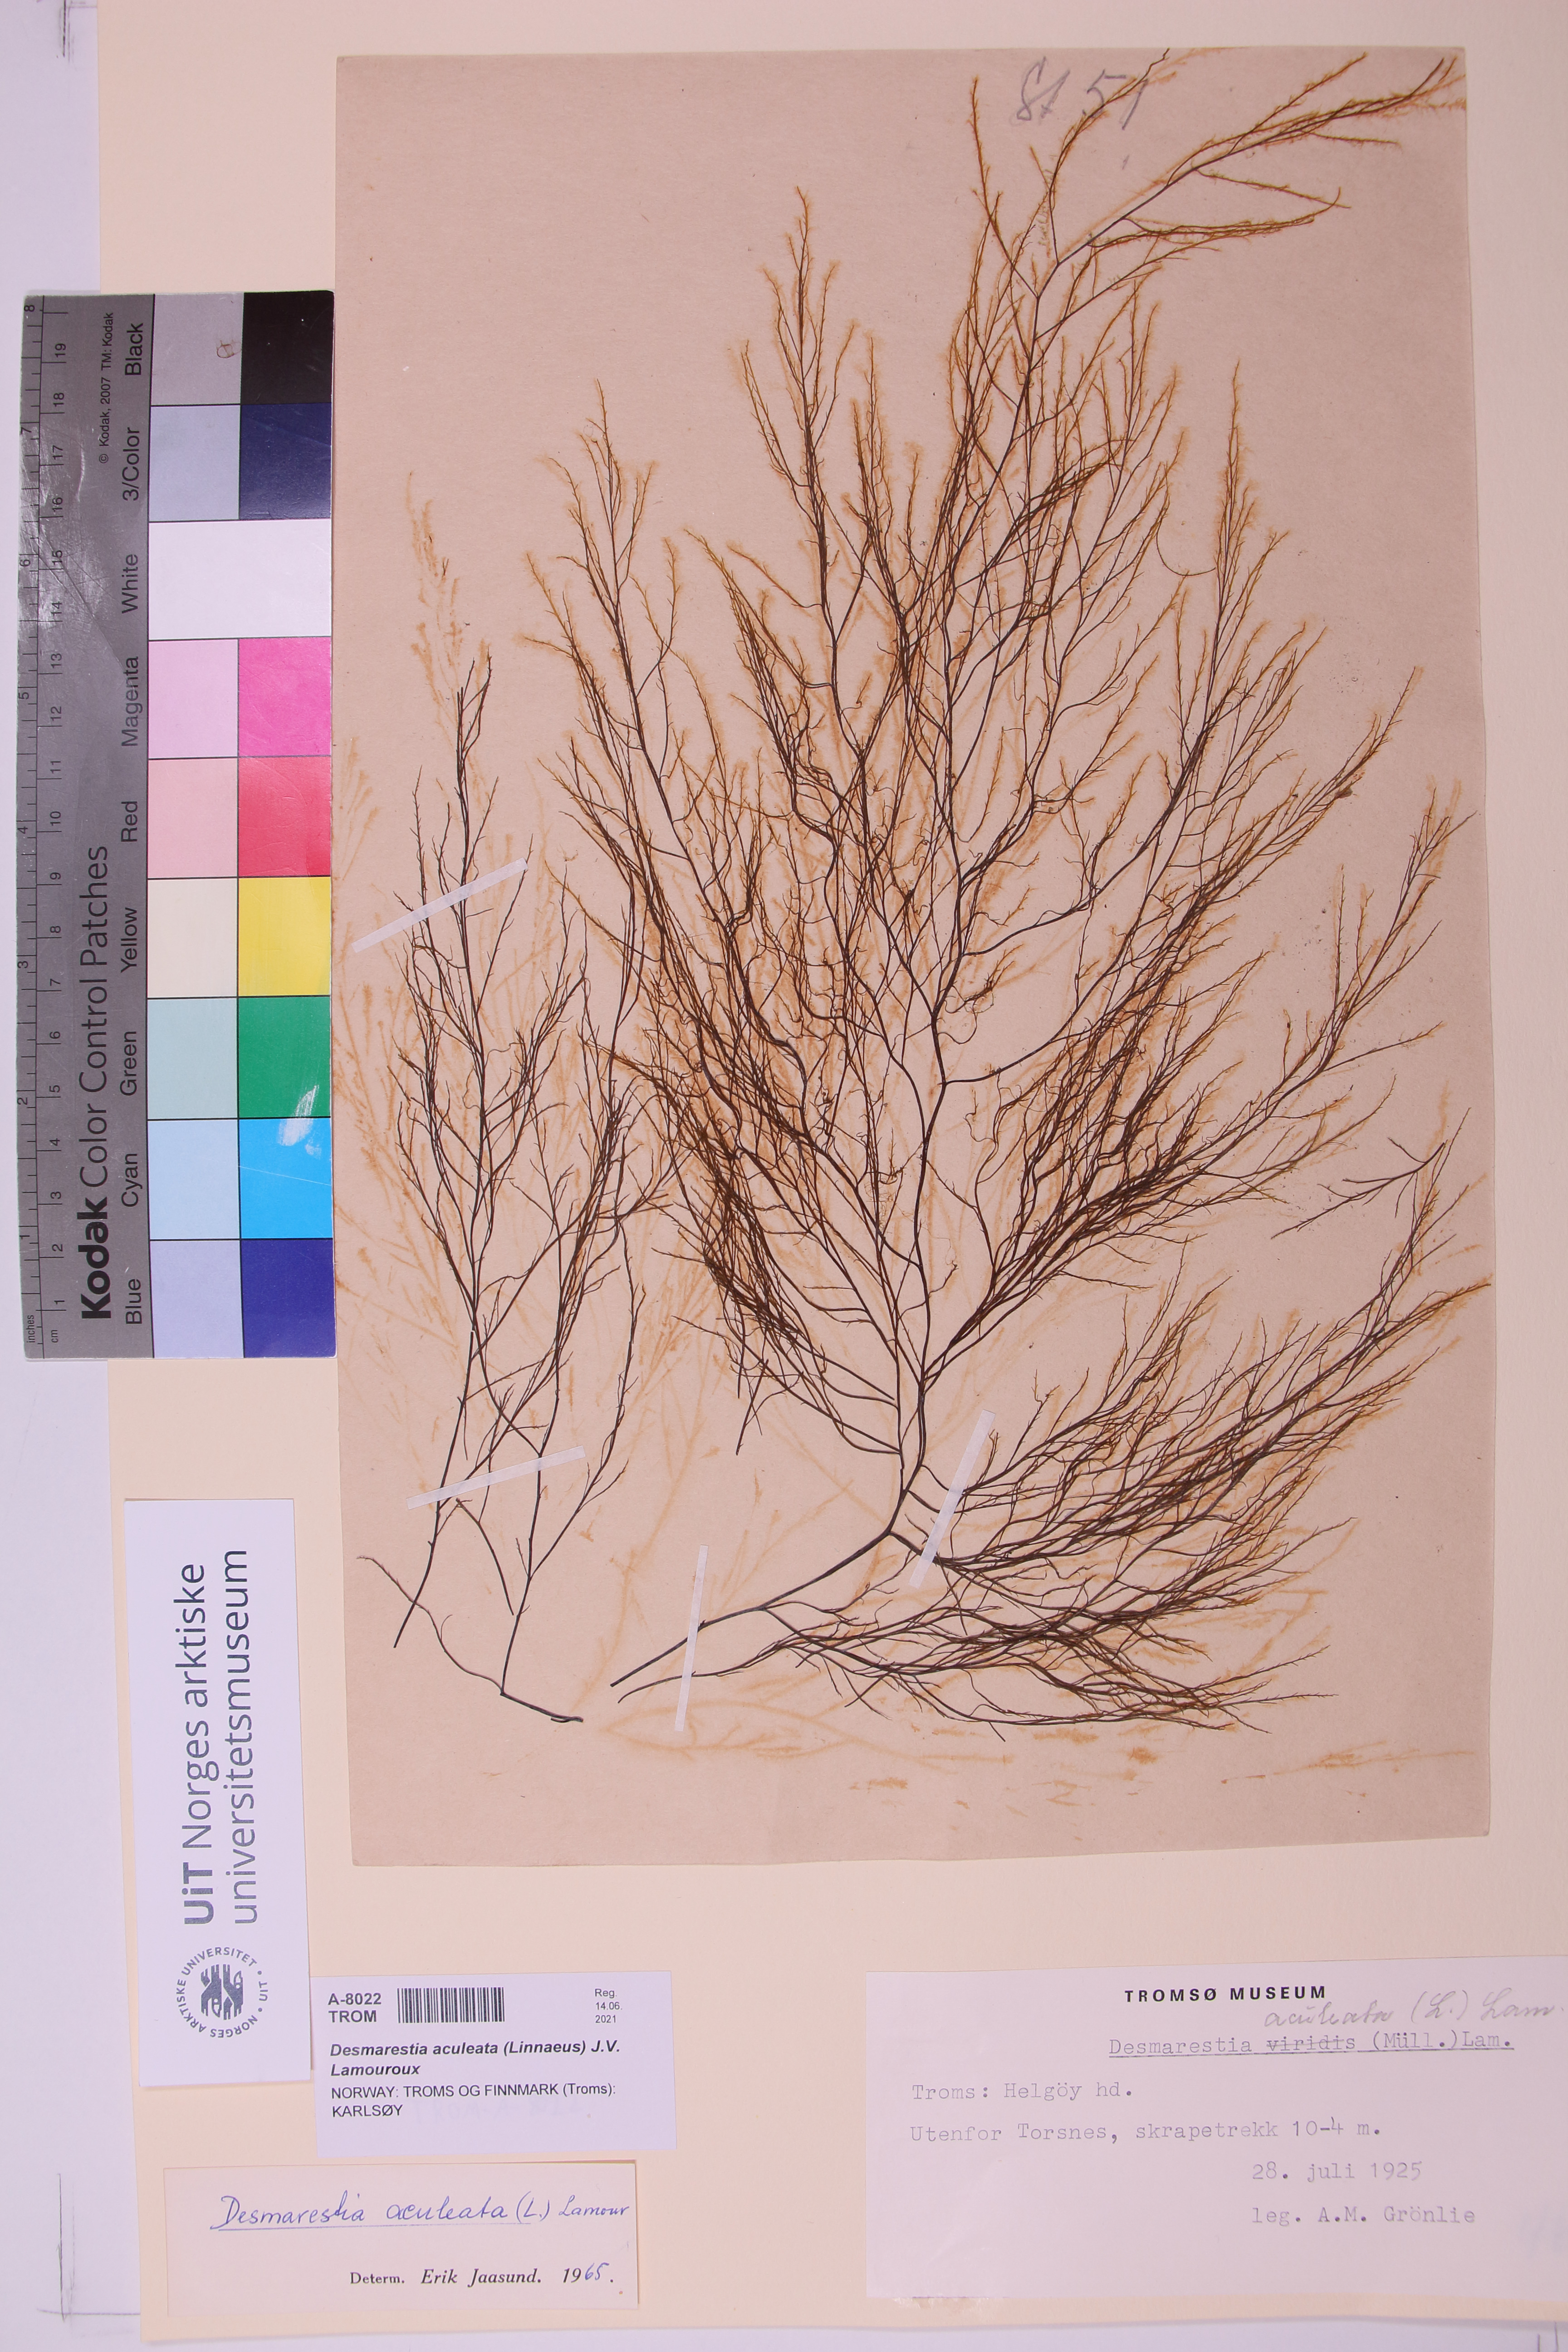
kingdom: Chromista
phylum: Ochrophyta
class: Phaeophyceae
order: Desmarestiales
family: Desmarestiaceae
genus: Desmarestia
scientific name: Desmarestia aculeata
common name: Witch's hair
